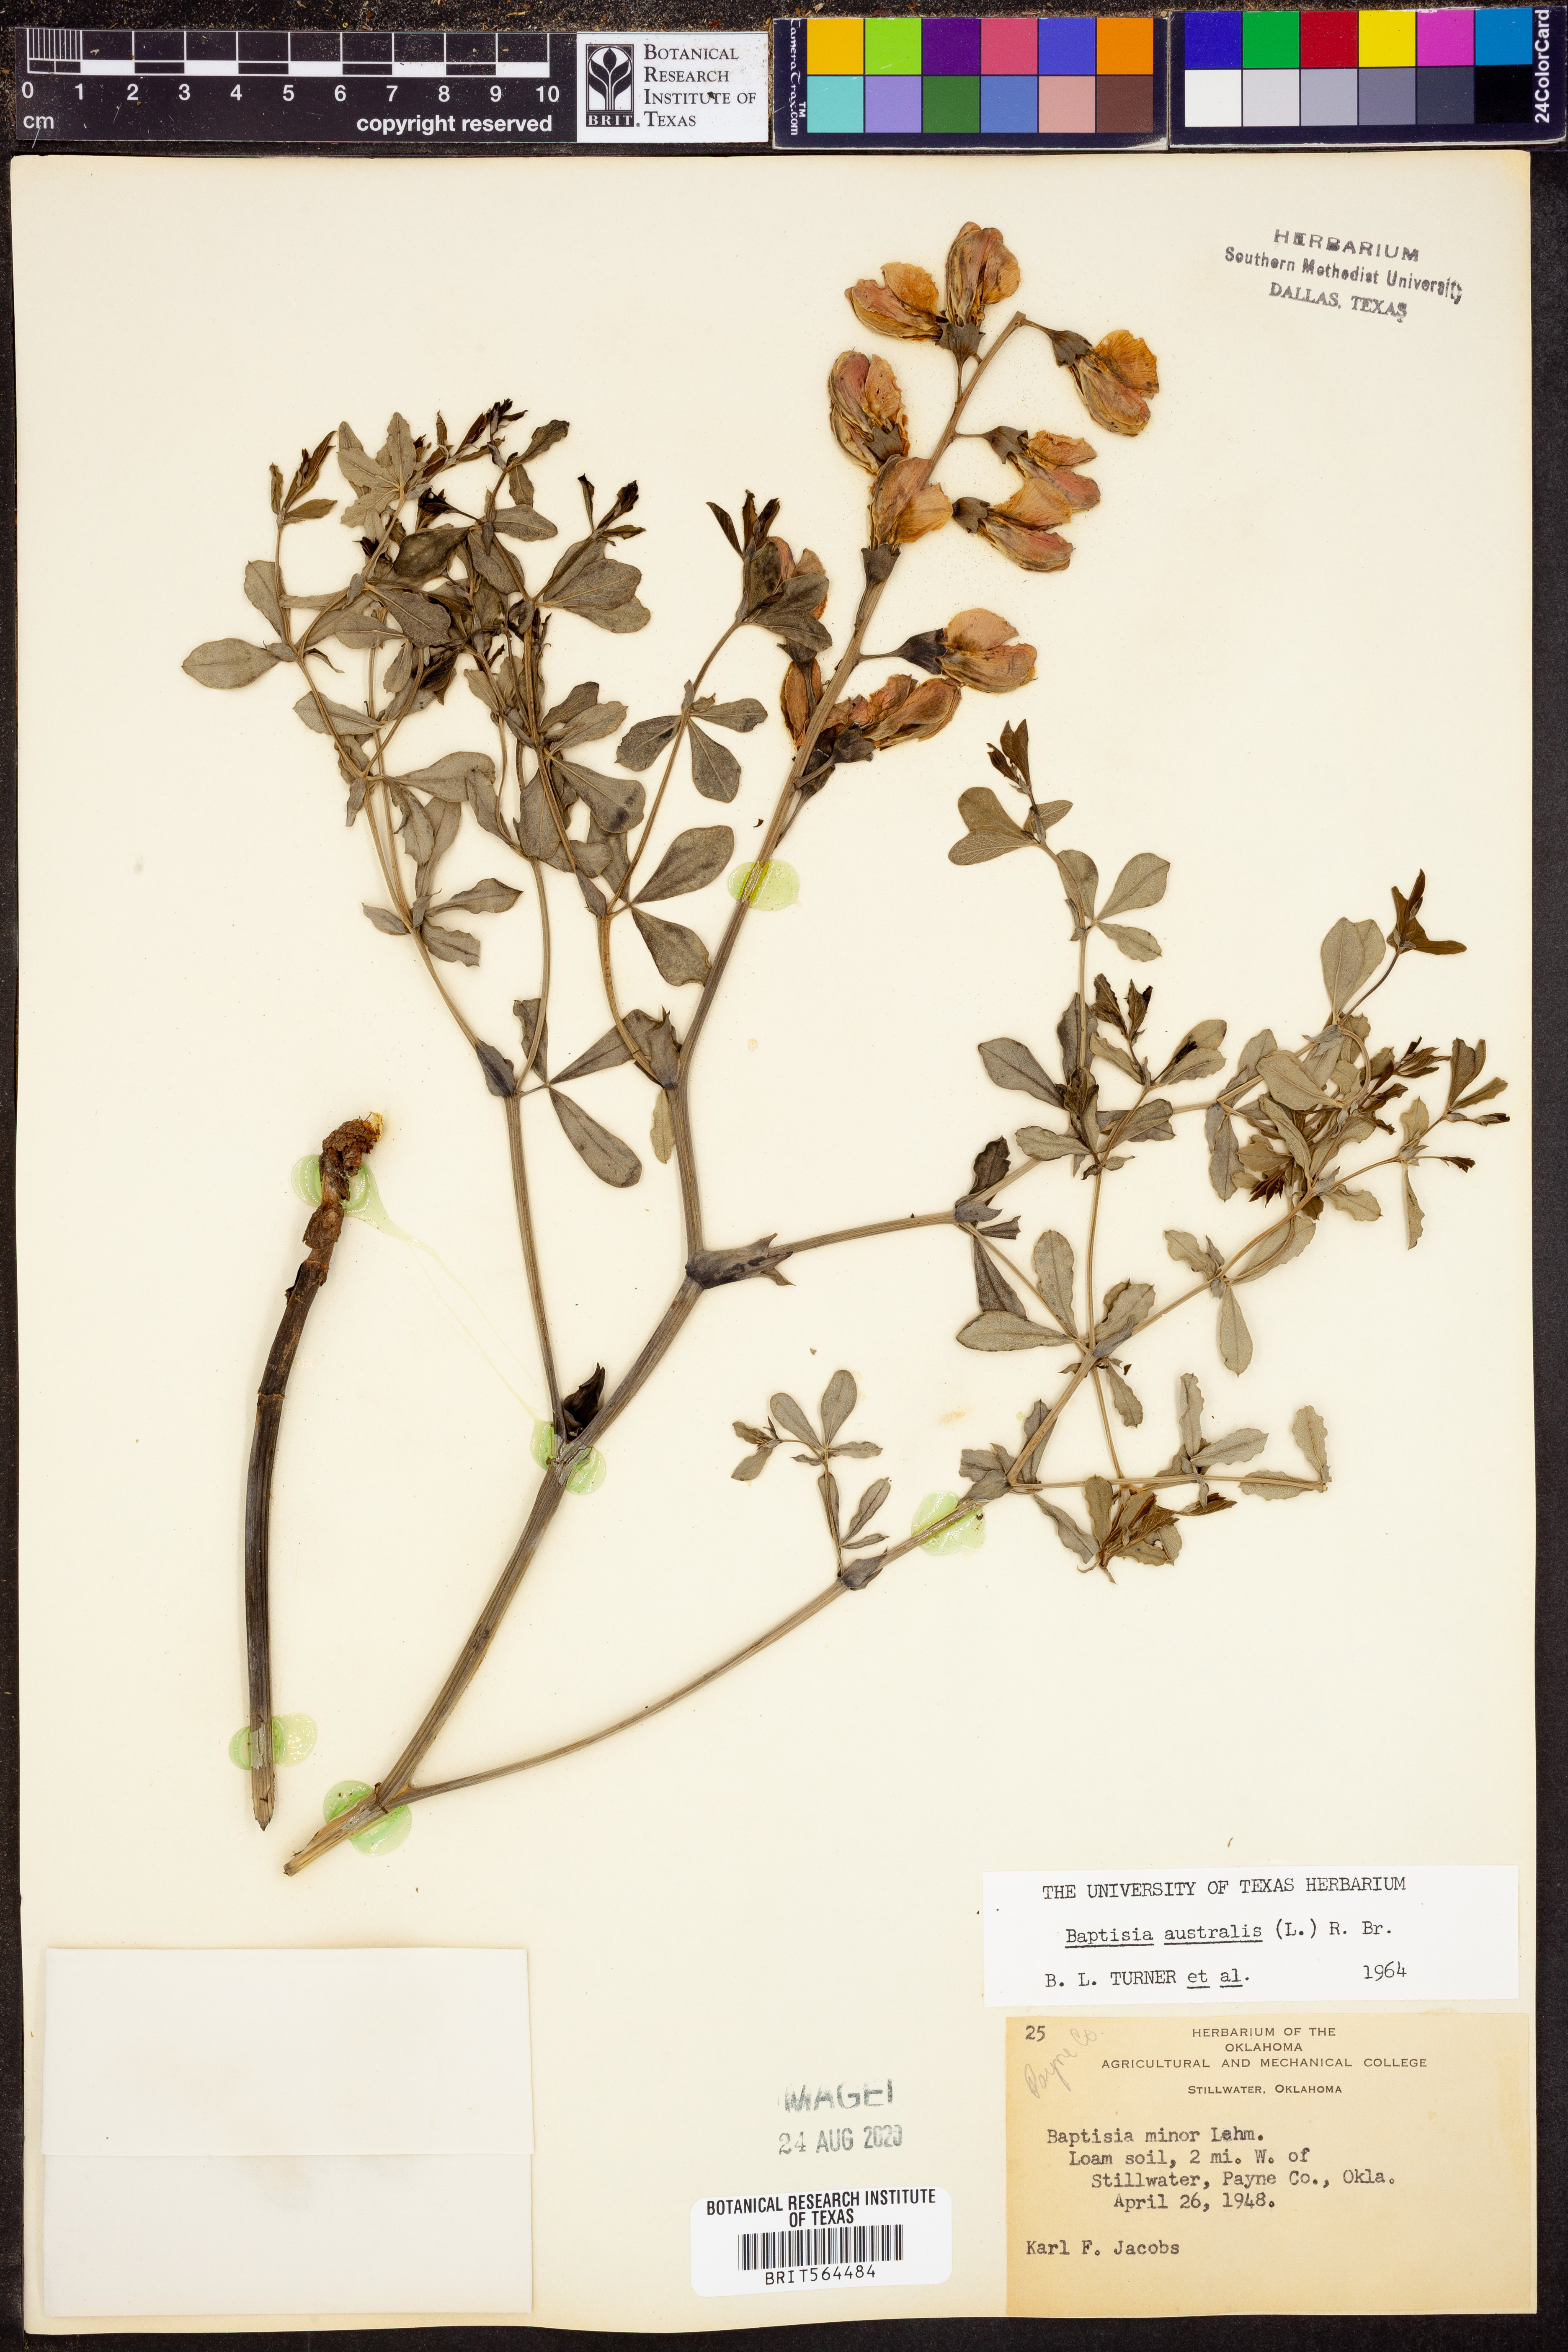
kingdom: Plantae
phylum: Tracheophyta
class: Magnoliopsida
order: Fabales
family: Fabaceae
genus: Baptisia
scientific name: Baptisia australis
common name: Blue false indigo
